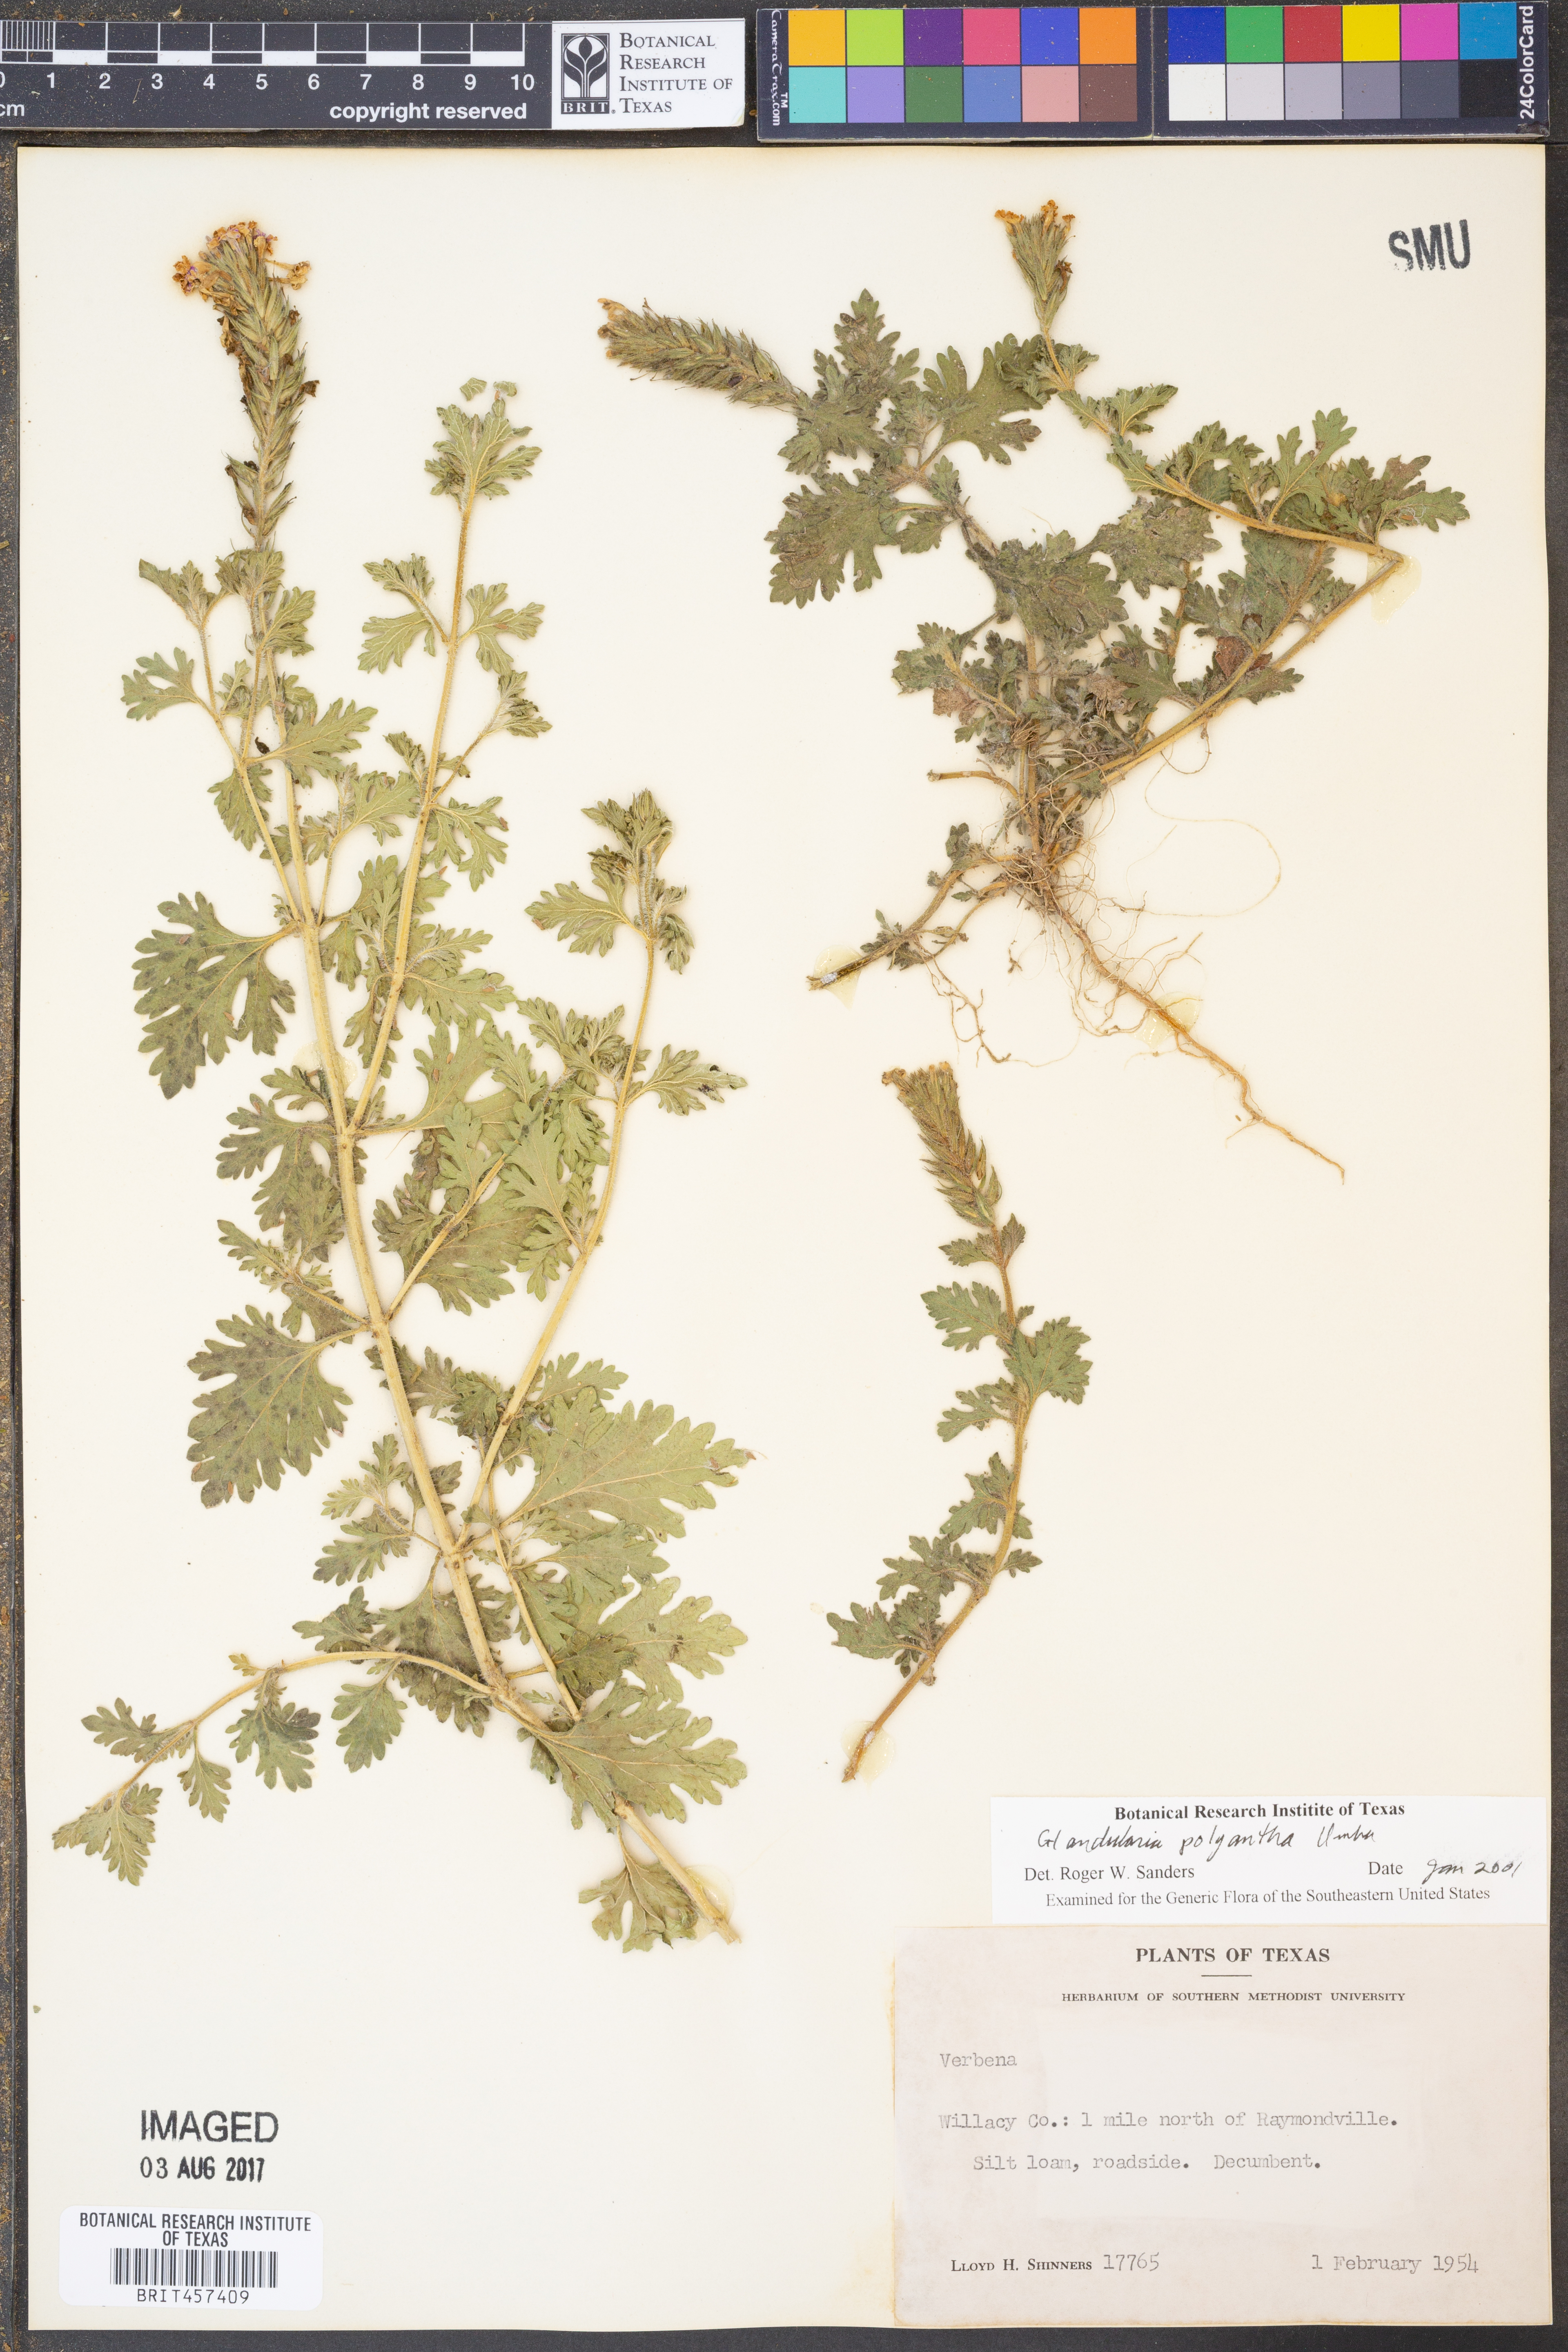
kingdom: Plantae
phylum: Tracheophyta
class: Magnoliopsida
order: Lamiales
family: Verbenaceae
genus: Verbena
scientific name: Verbena polyantha
